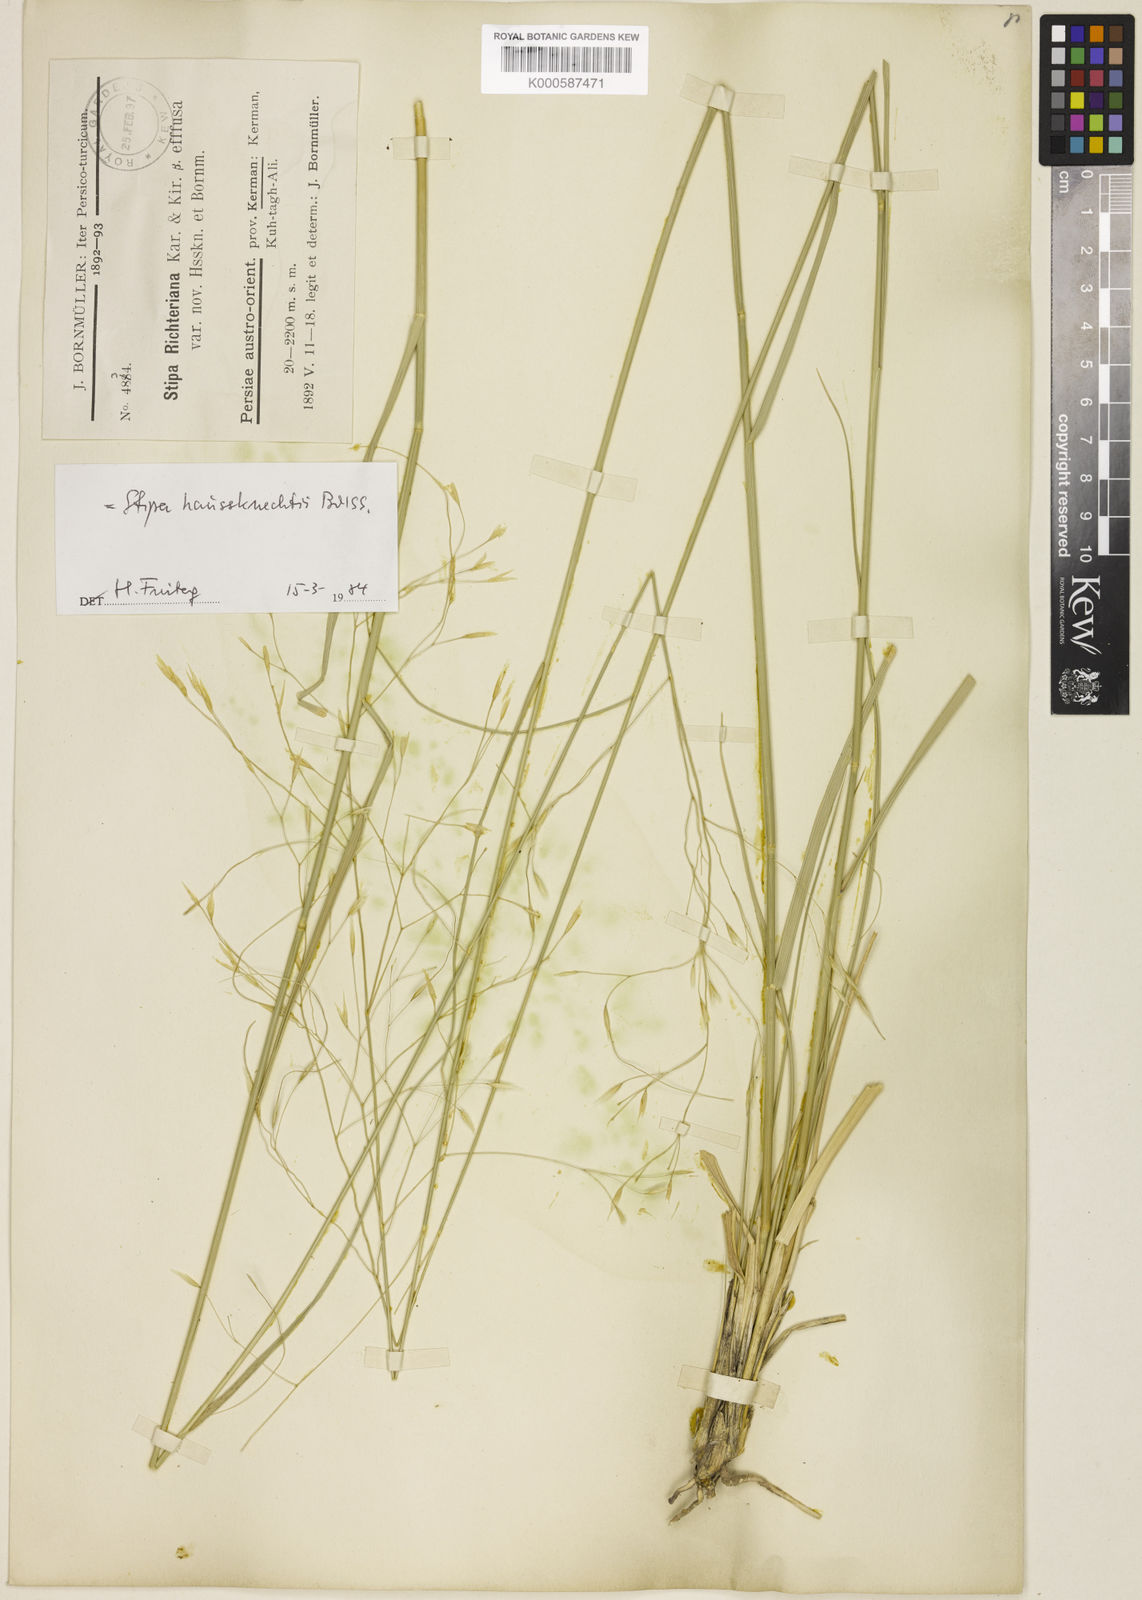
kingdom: Plantae
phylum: Tracheophyta
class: Liliopsida
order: Poales
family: Poaceae
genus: Achnatherum
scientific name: Achnatherum haussknechtii
